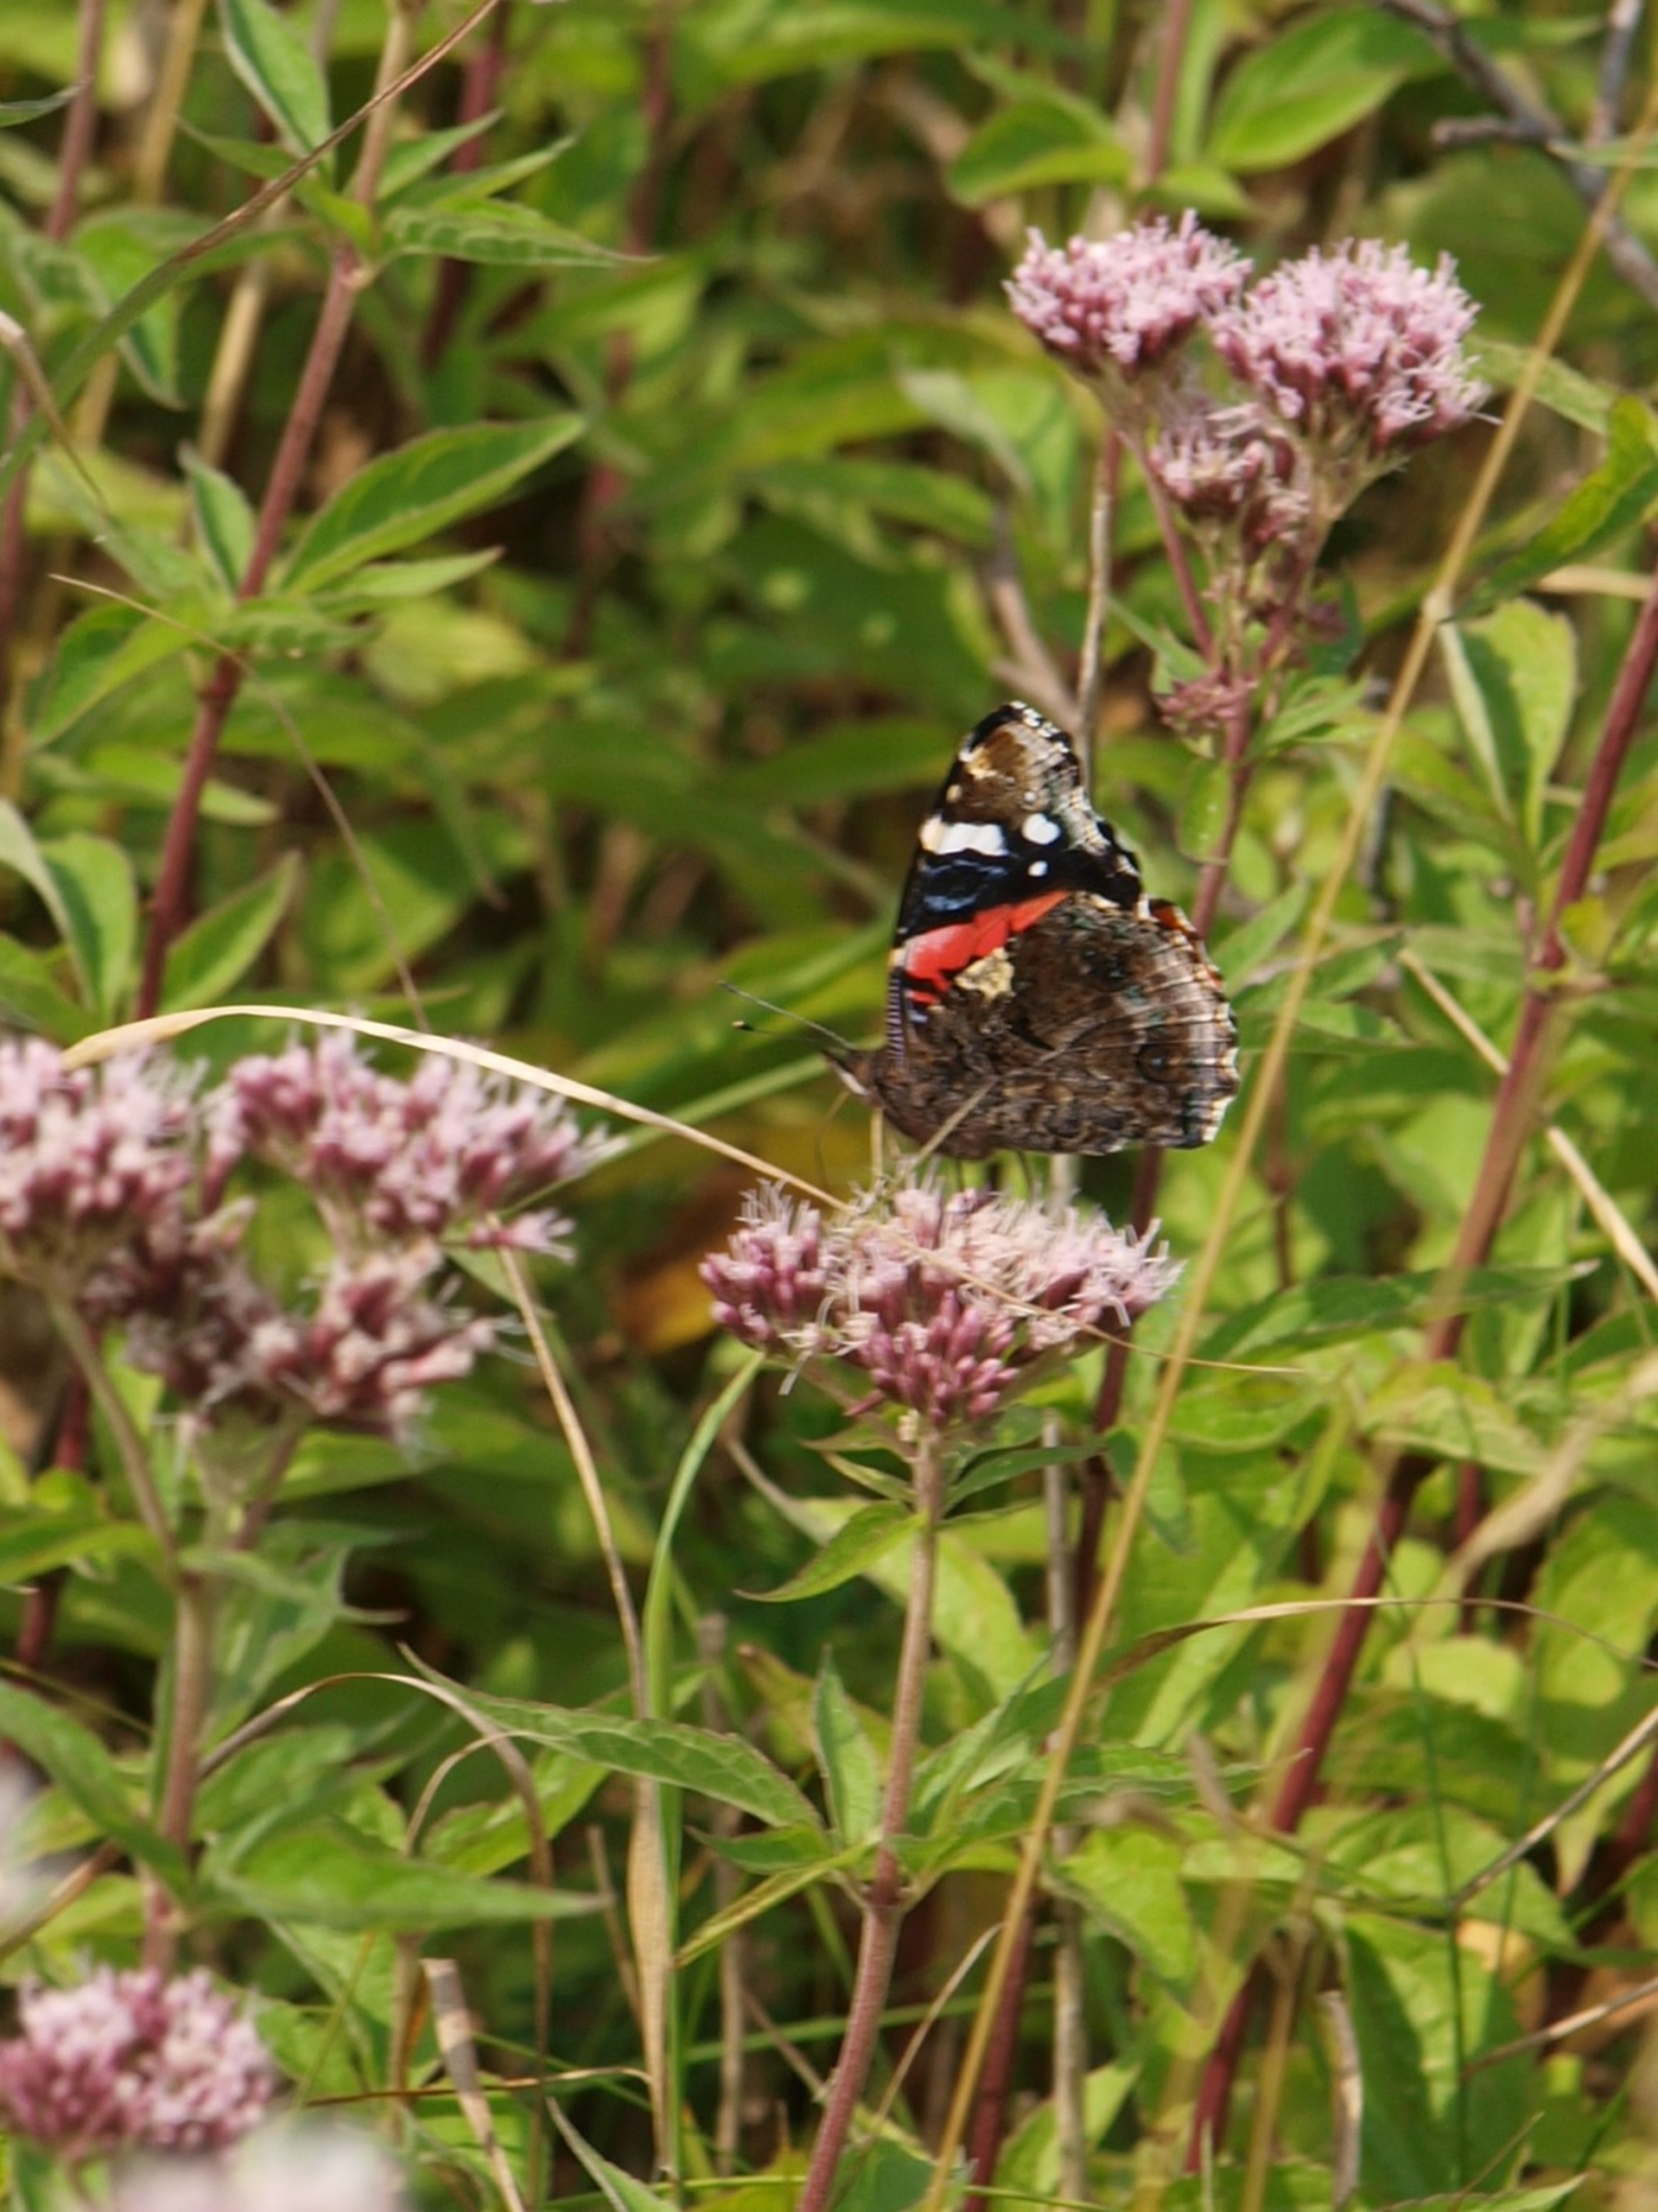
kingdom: Animalia
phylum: Arthropoda
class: Insecta
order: Lepidoptera
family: Nymphalidae
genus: Vanessa
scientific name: Vanessa atalanta
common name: Admiral
